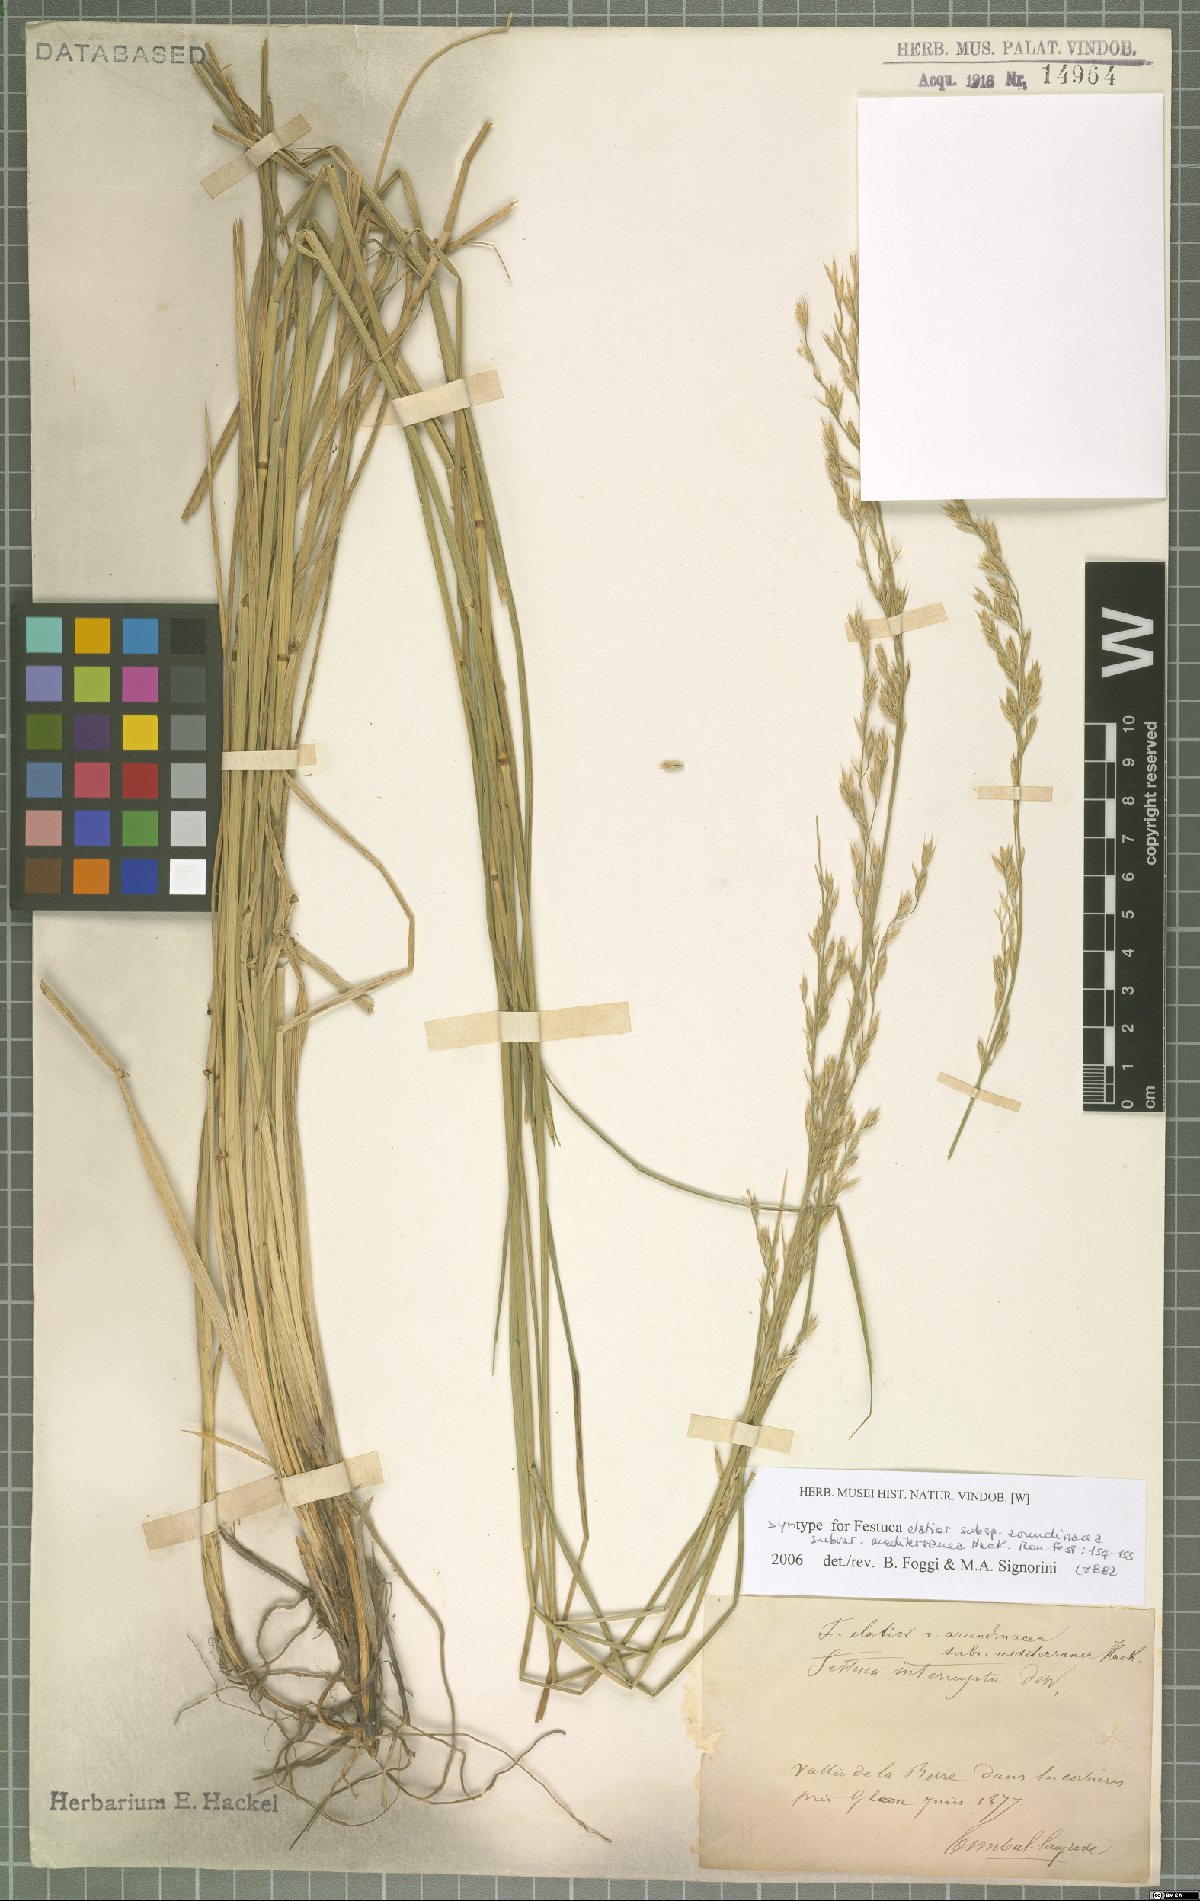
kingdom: Plantae
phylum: Tracheophyta
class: Liliopsida
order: Poales
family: Poaceae
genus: Lolium
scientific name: Lolium mediterraneum
